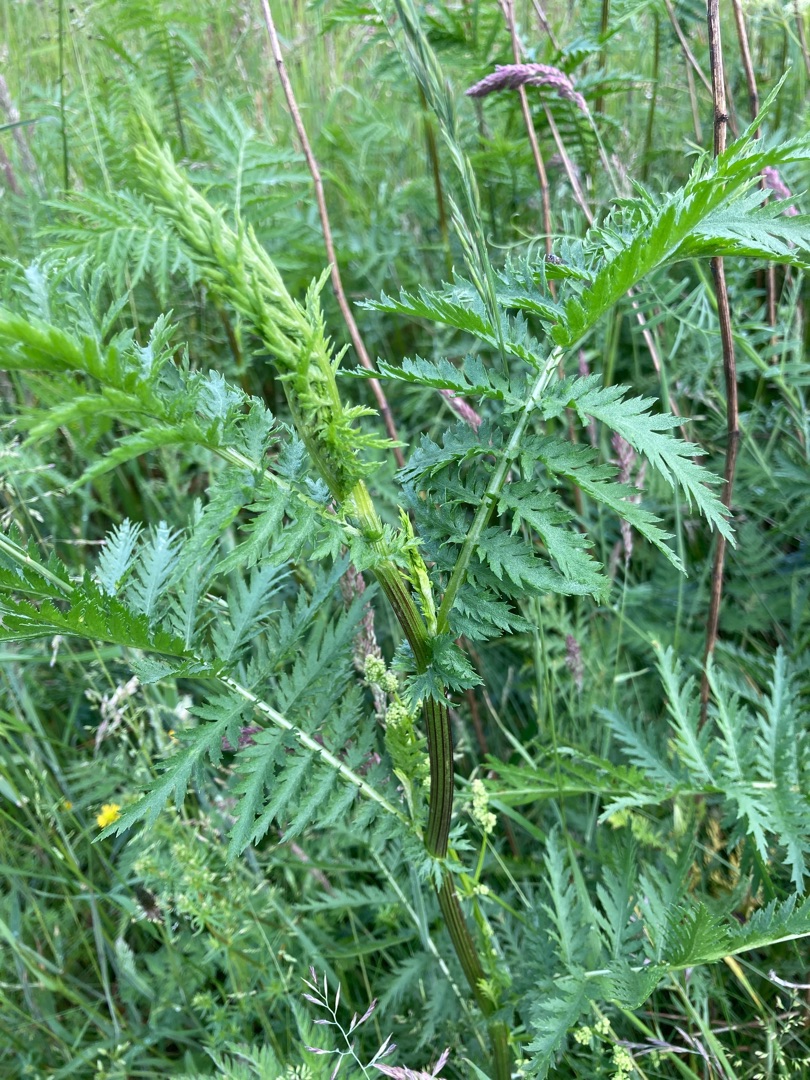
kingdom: Plantae
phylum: Tracheophyta
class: Magnoliopsida
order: Asterales
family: Asteraceae
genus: Tanacetum
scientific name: Tanacetum vulgare
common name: Rejnfan
